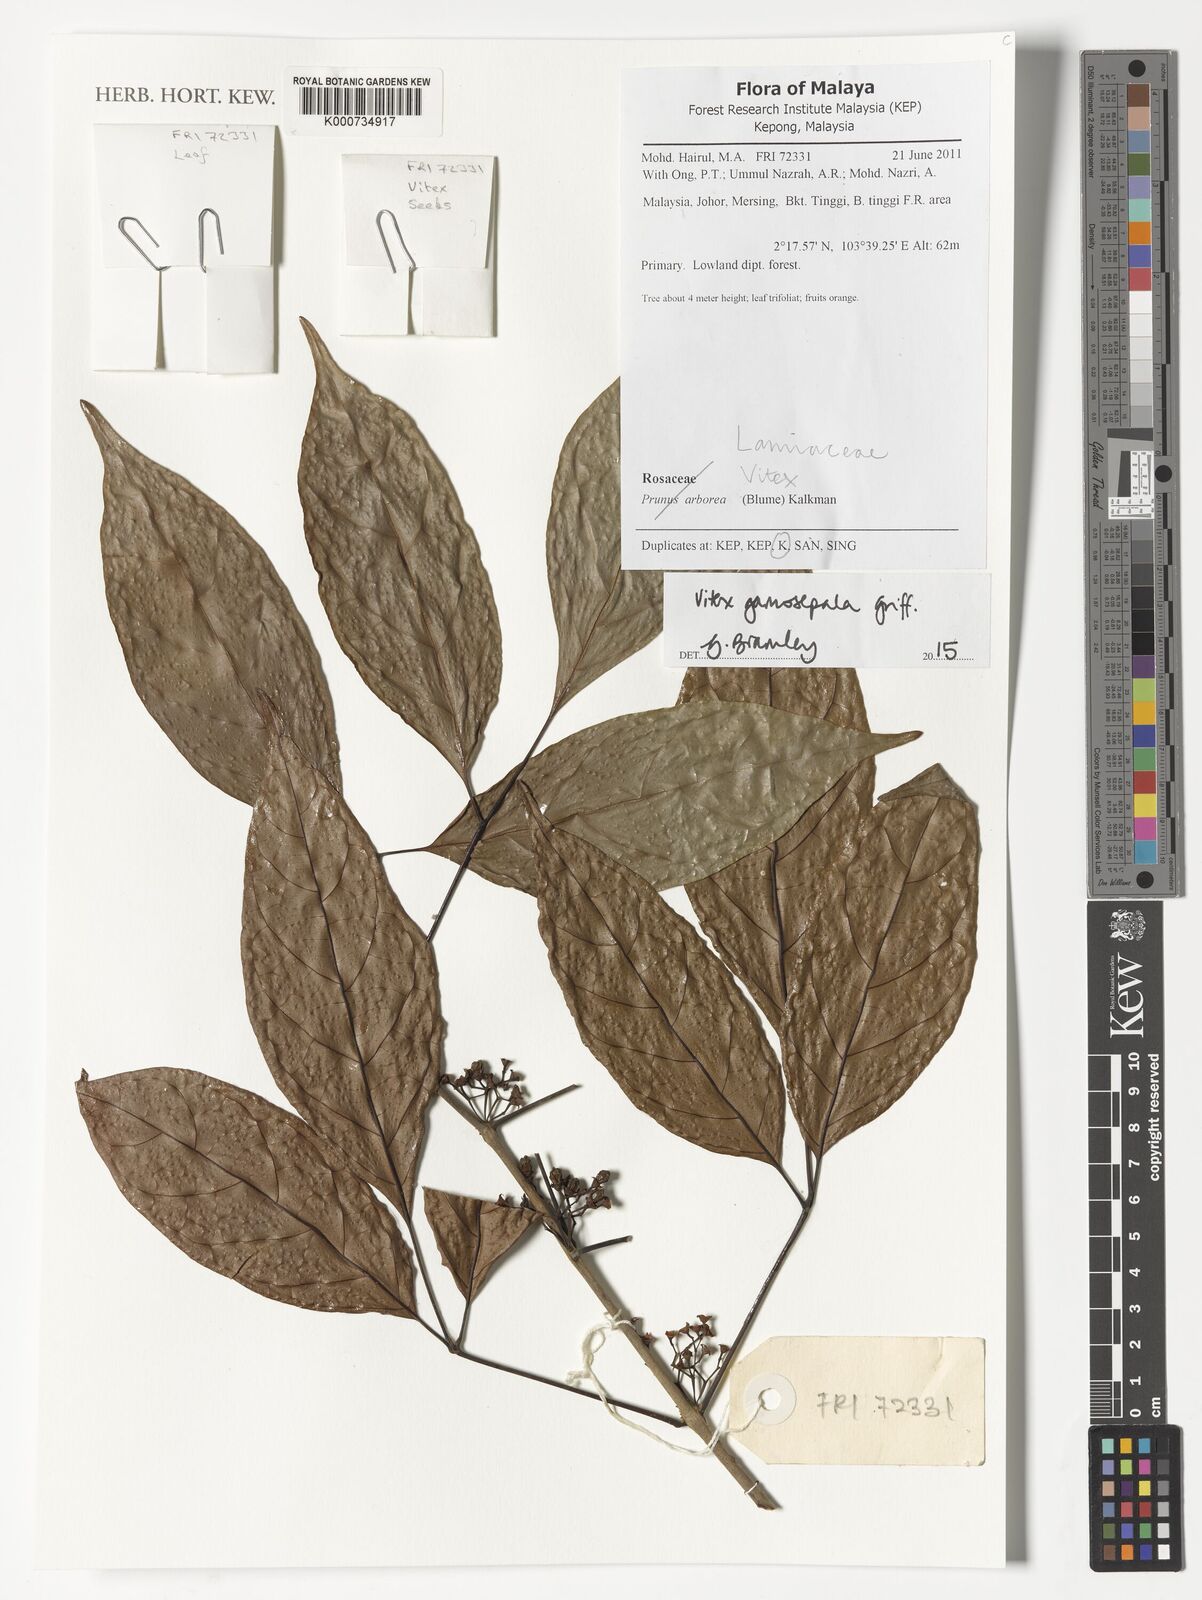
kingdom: Plantae
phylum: Tracheophyta
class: Magnoliopsida
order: Lamiales
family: Lamiaceae
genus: Vitex
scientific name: Vitex gamosepala
